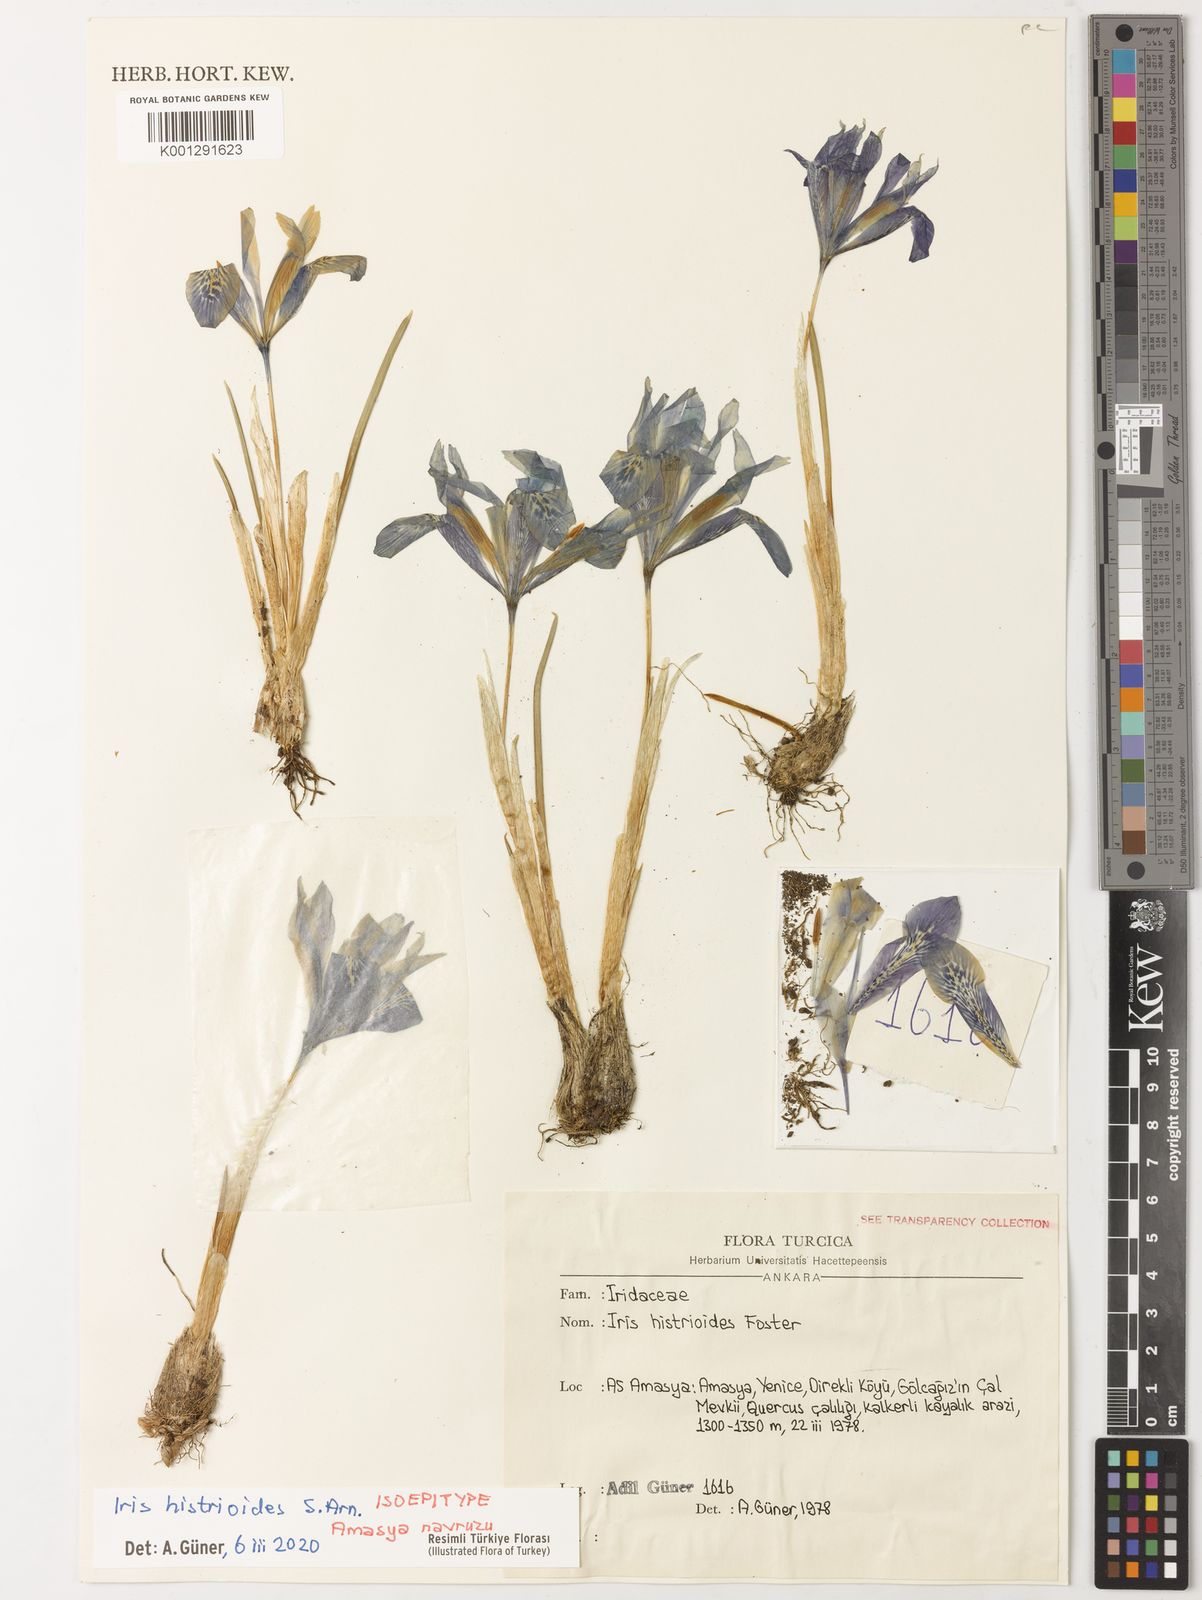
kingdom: Plantae
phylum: Tracheophyta
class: Liliopsida
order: Asparagales
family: Iridaceae
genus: Iris
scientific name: Iris histrioides
